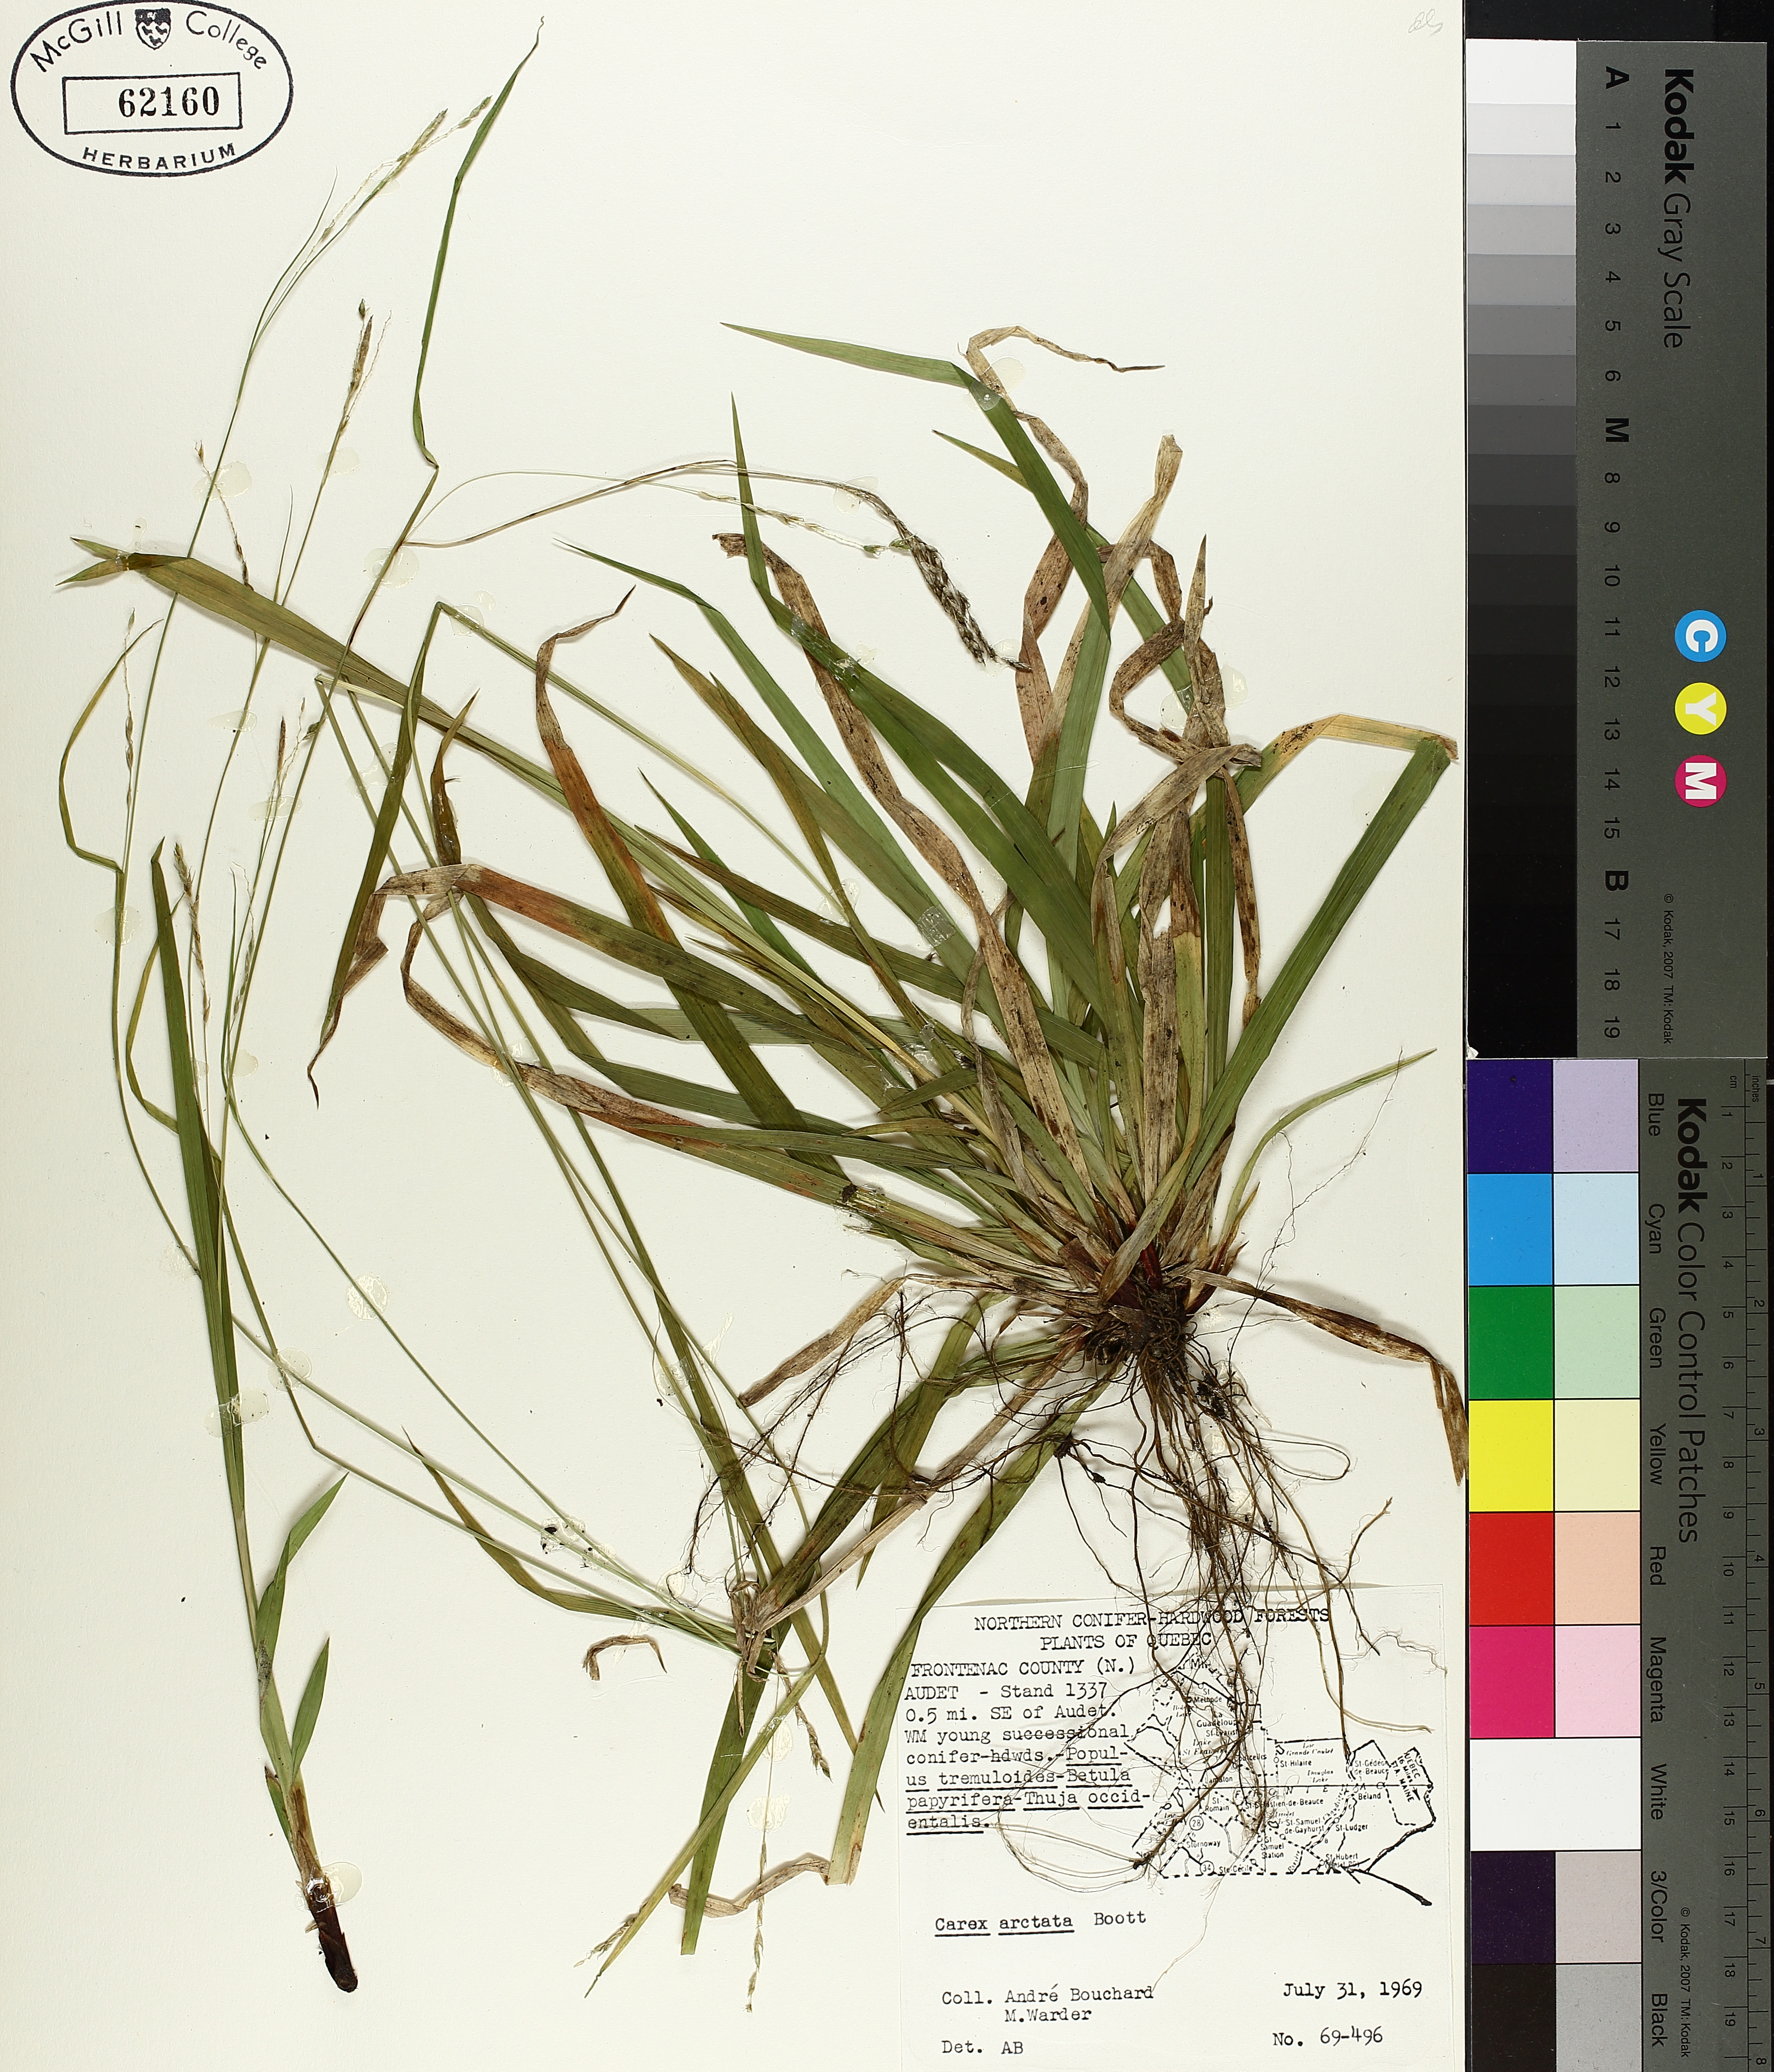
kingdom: Plantae
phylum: Tracheophyta
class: Liliopsida
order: Poales
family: Cyperaceae
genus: Carex
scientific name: Carex arctata
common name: Black sedge
